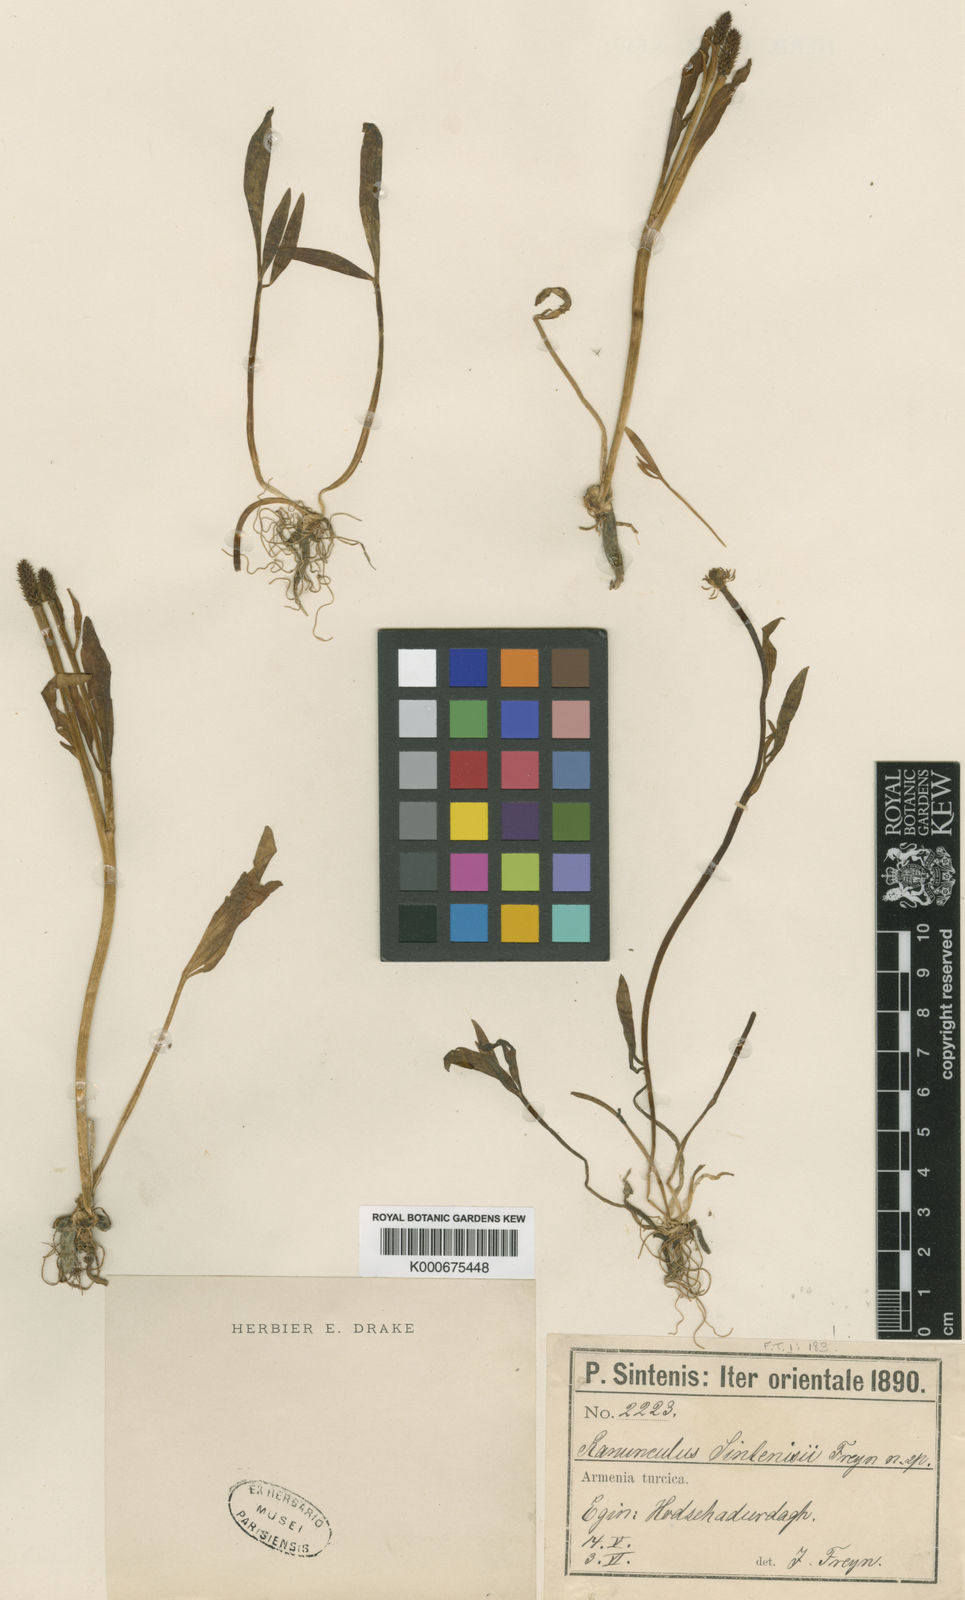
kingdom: Plantae
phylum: Tracheophyta
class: Magnoliopsida
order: Ranunculales
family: Ranunculaceae
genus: Ranunculus
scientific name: Ranunculus sintenisii
